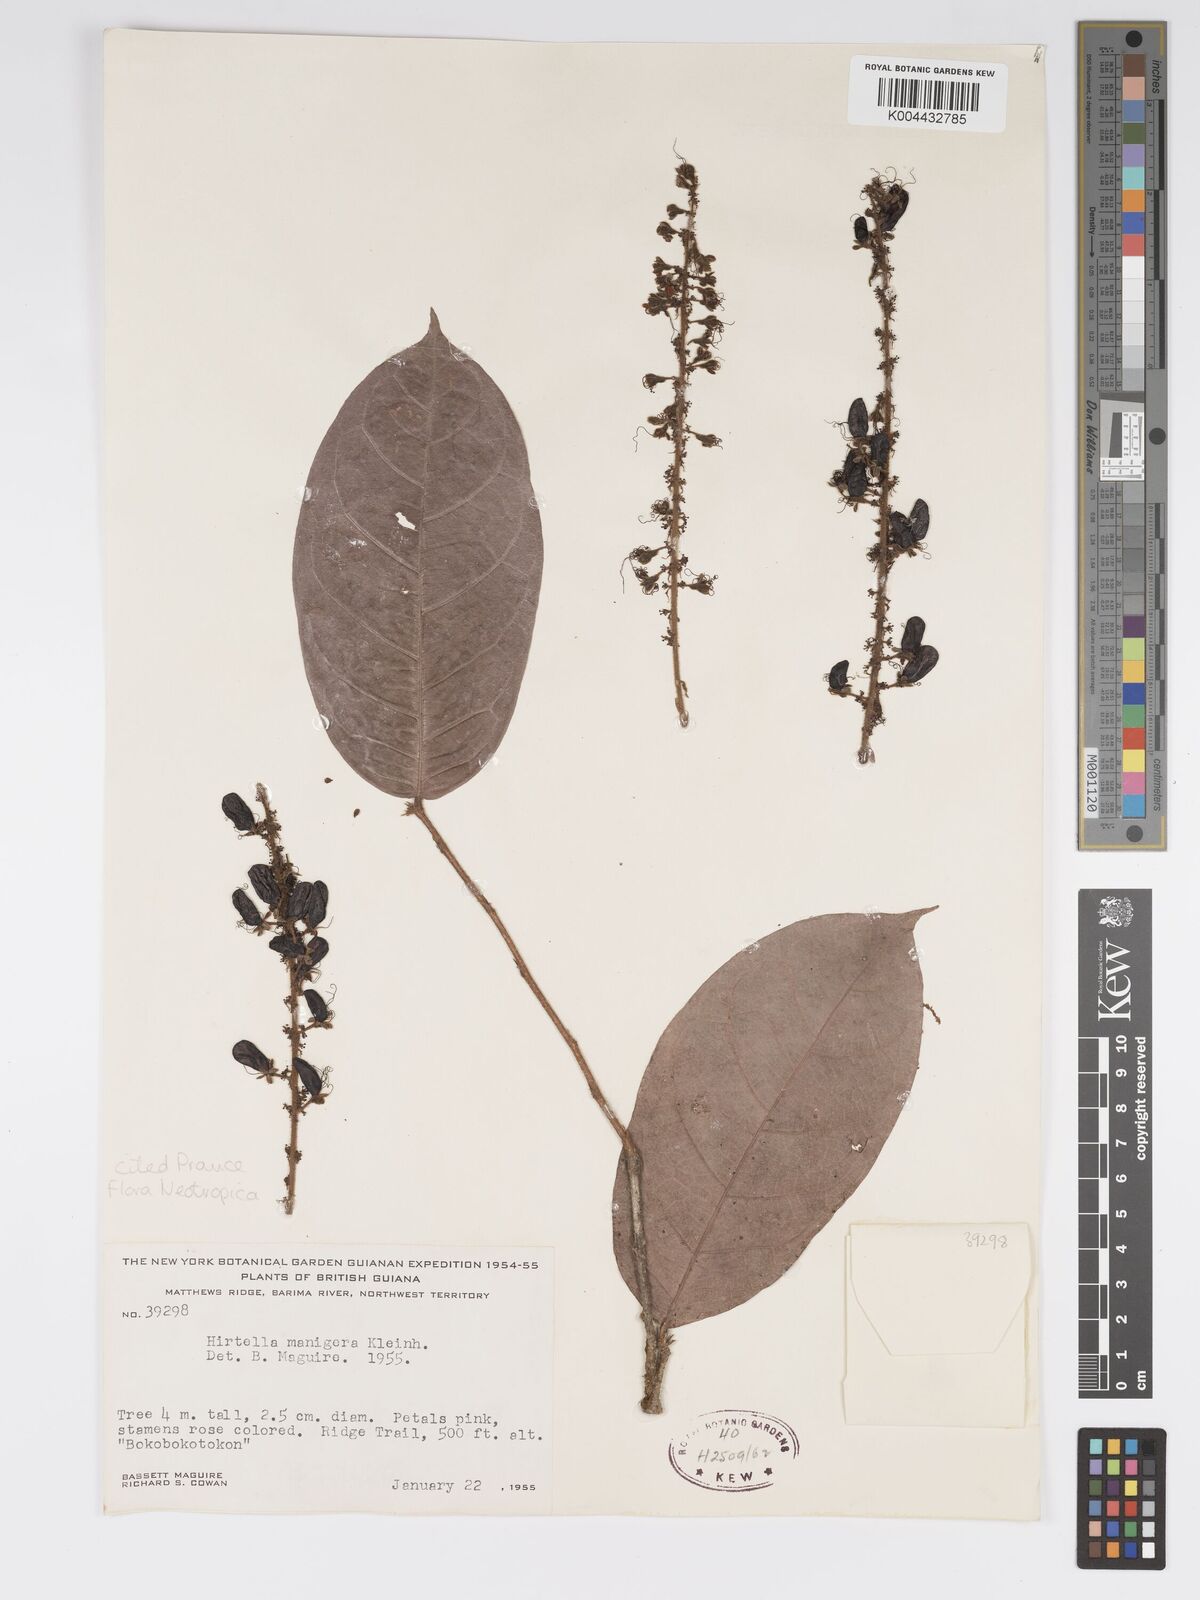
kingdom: Plantae
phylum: Tracheophyta
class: Magnoliopsida
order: Malpighiales
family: Chrysobalanaceae
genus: Hirtella
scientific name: Hirtella silicea
